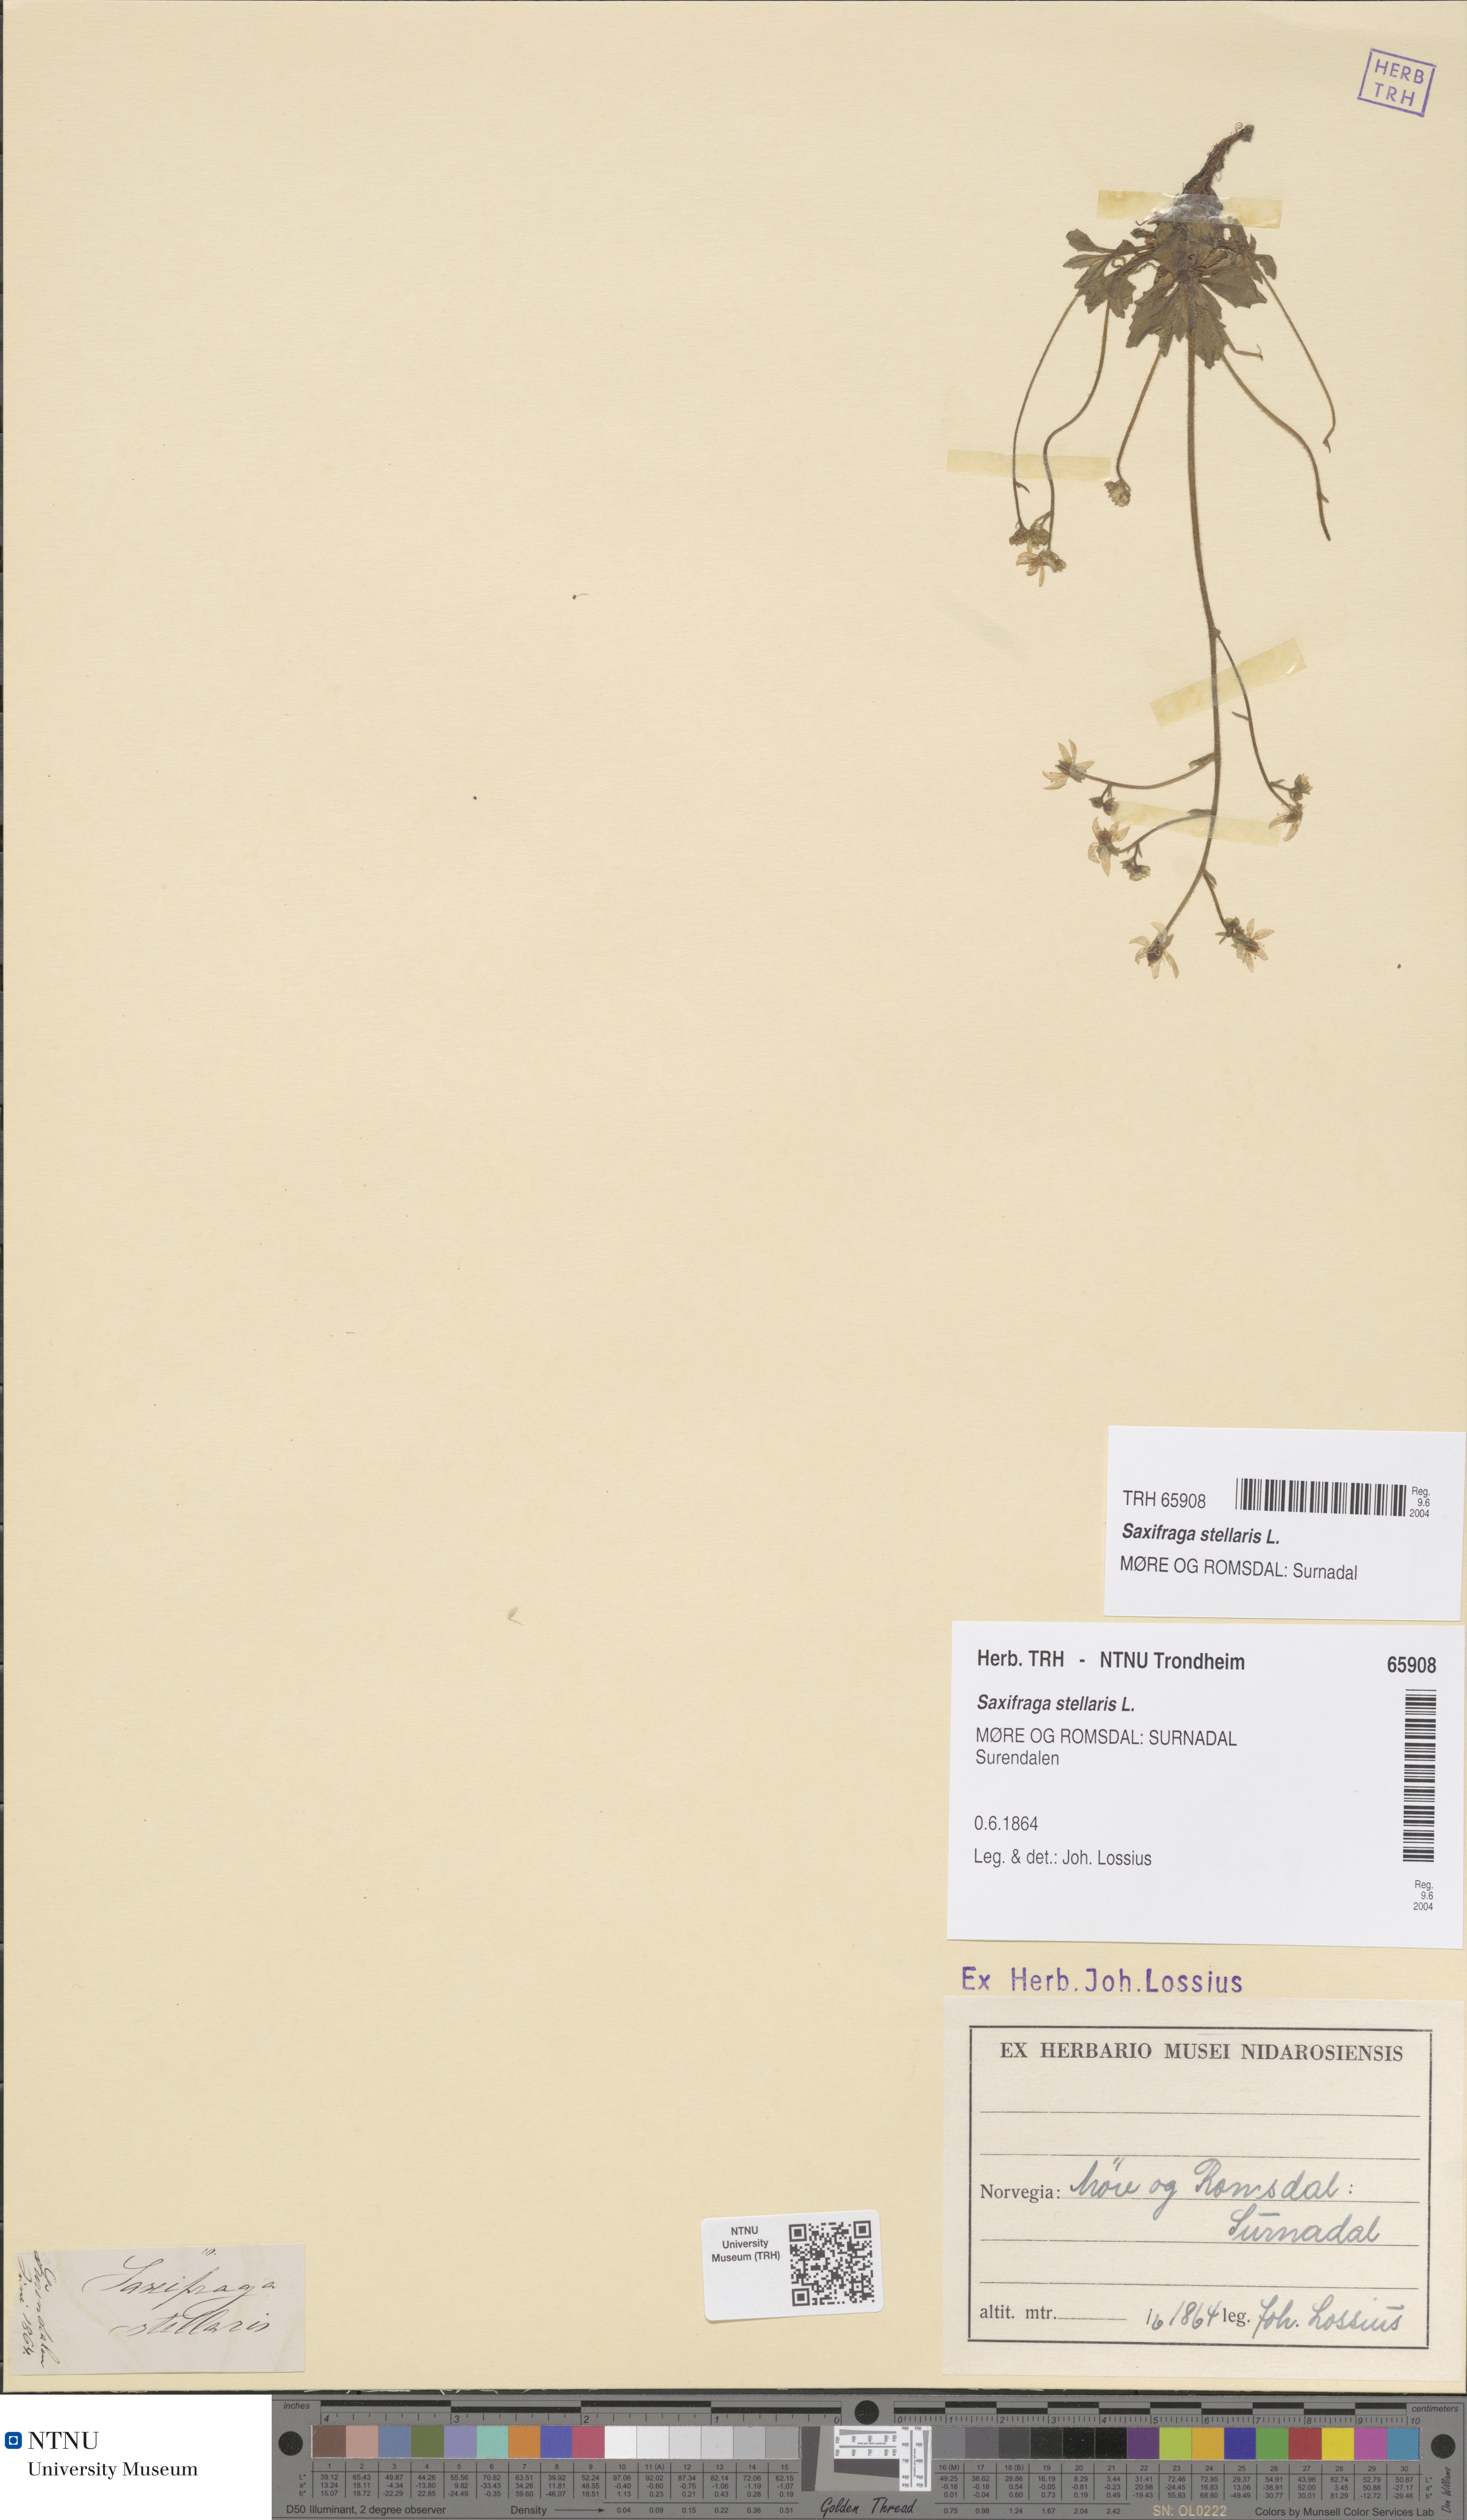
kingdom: Plantae
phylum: Tracheophyta
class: Magnoliopsida
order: Saxifragales
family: Saxifragaceae
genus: Micranthes
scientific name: Micranthes stellaris
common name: Starry saxifrage
